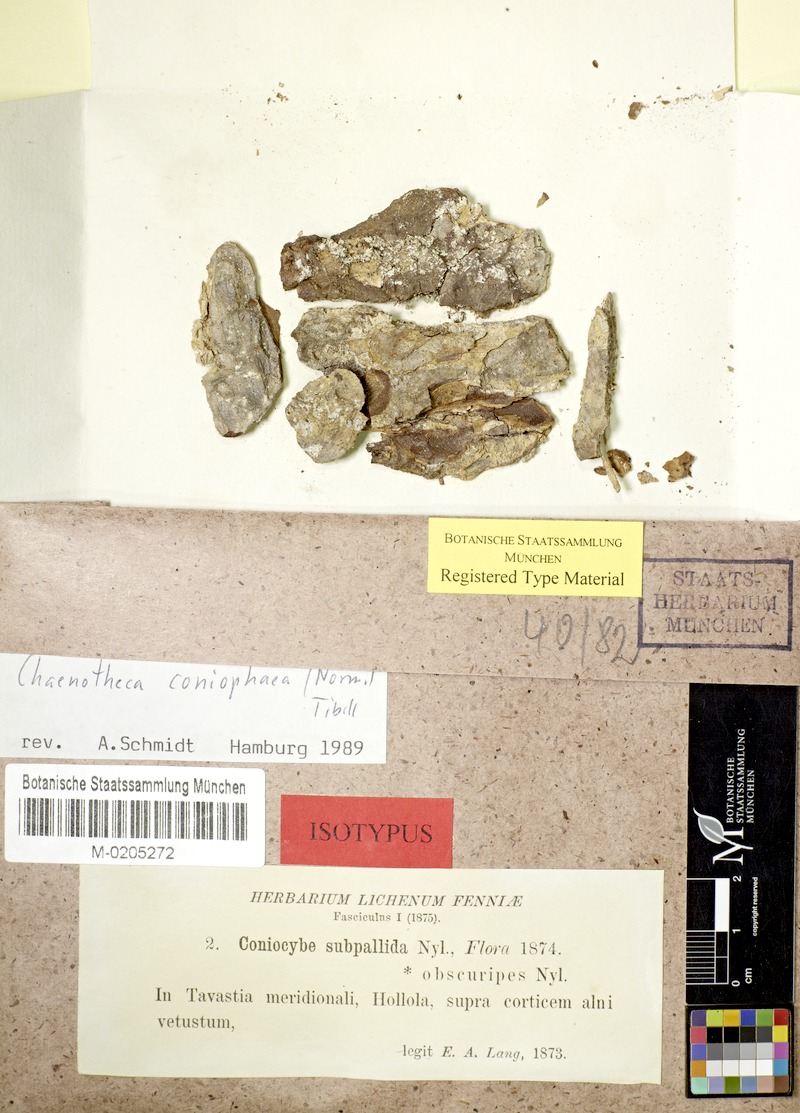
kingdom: Fungi
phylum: Ascomycota
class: Coniocybomycetes
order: Coniocybales
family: Coniocybaceae
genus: Sclerophora
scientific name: Sclerophora pallida
